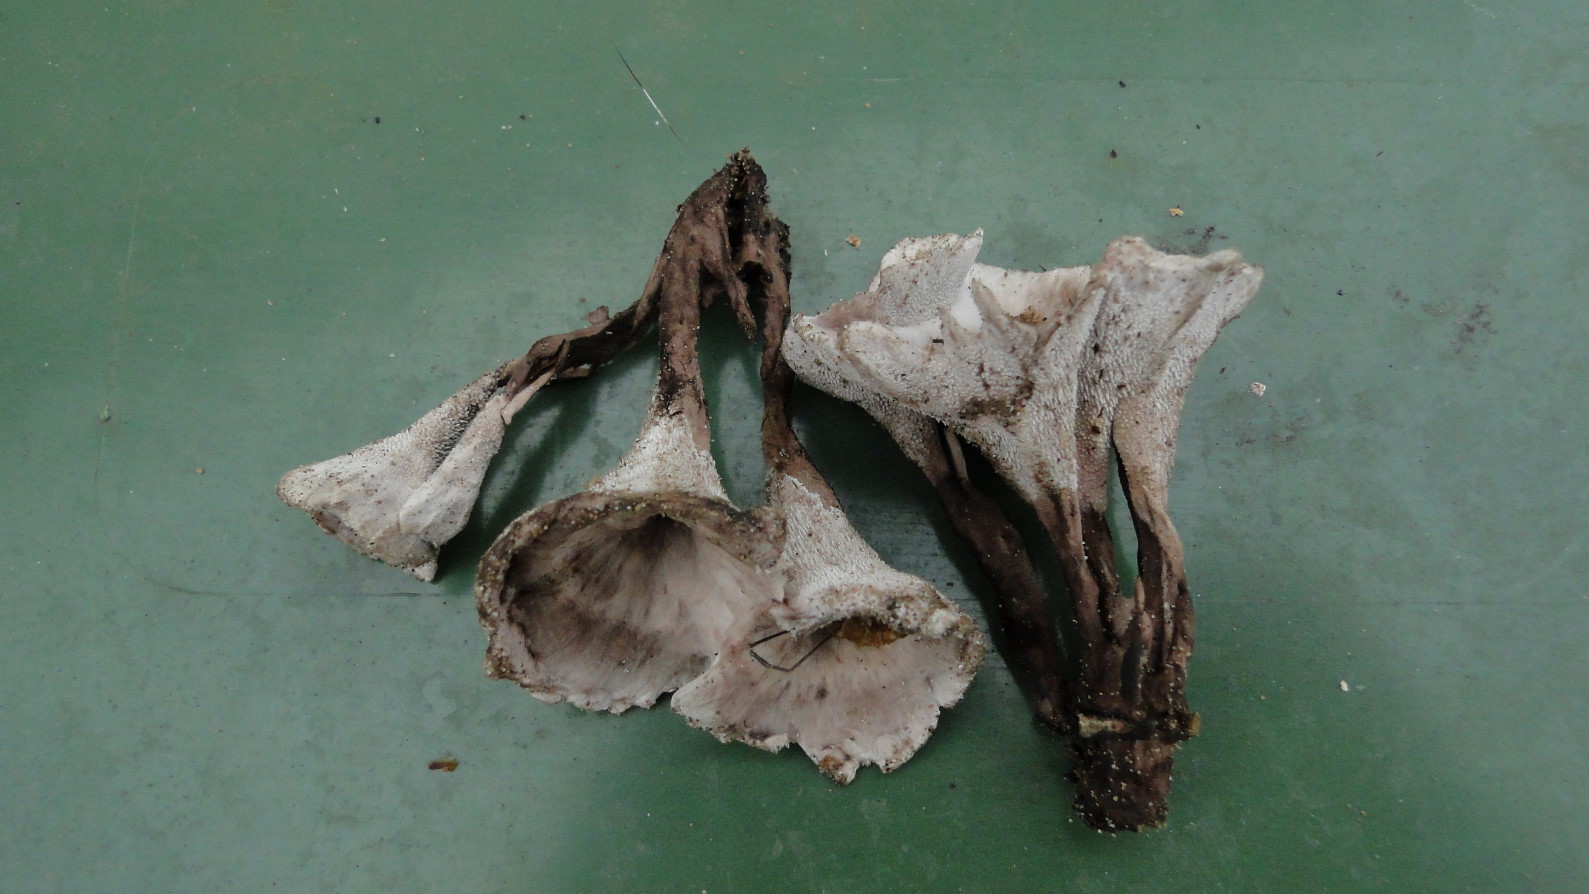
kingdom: Fungi
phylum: Basidiomycota
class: Agaricomycetes
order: Thelephorales
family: Thelephoraceae
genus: Phellodon
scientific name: Phellodon tomentosus
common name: vellugtende duftpigsvamp
